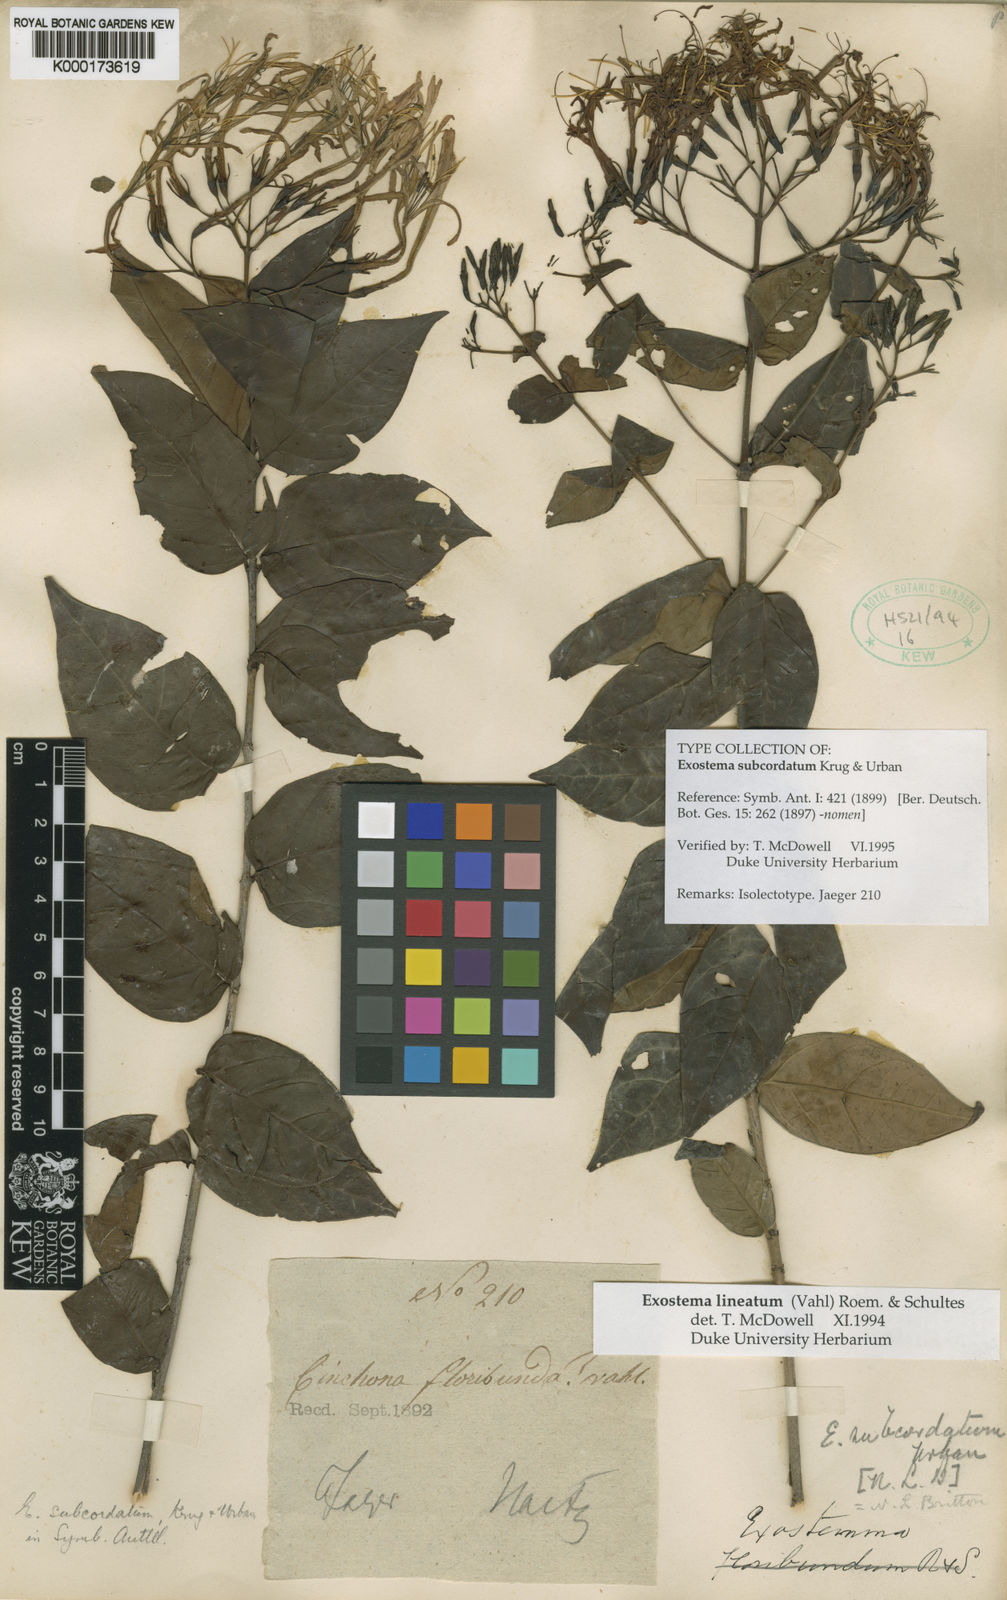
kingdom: Plantae
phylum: Tracheophyta
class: Magnoliopsida
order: Gentianales
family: Rubiaceae
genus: Solenandra
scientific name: Solenandra lineata
